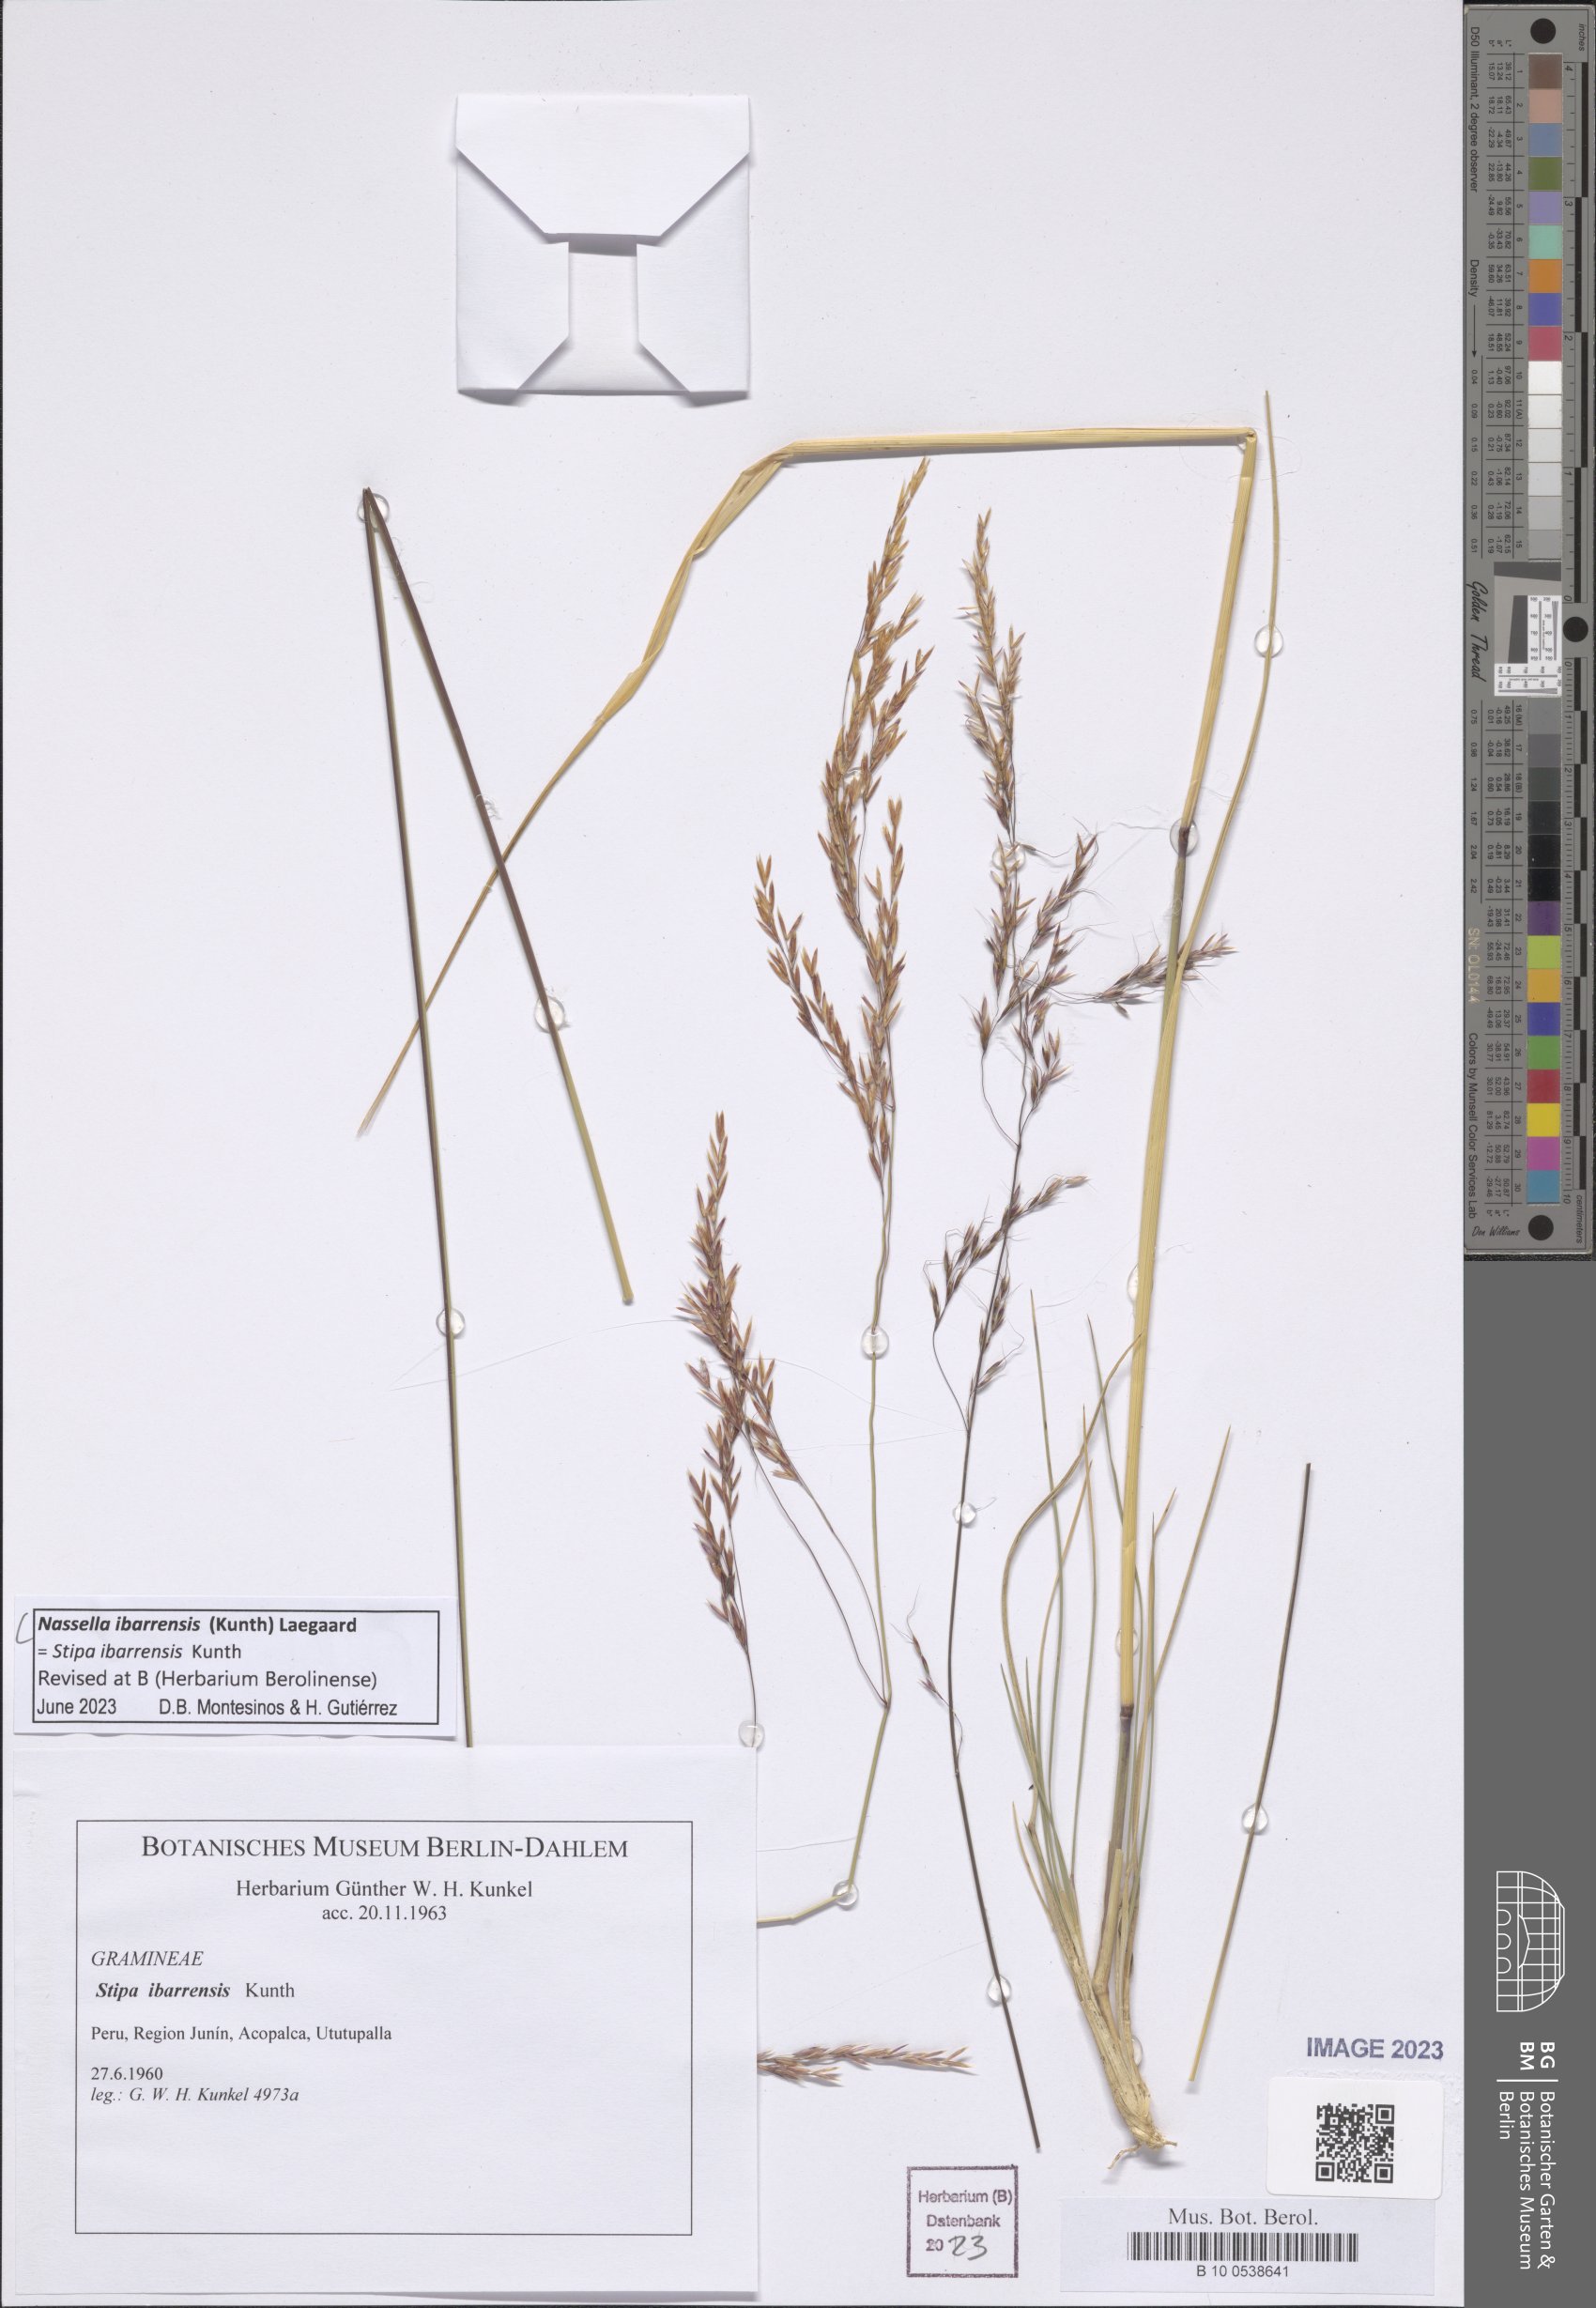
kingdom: Plantae
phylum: Tracheophyta
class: Liliopsida
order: Poales
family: Poaceae
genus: Nassella
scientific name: Nassella ibarrensis
